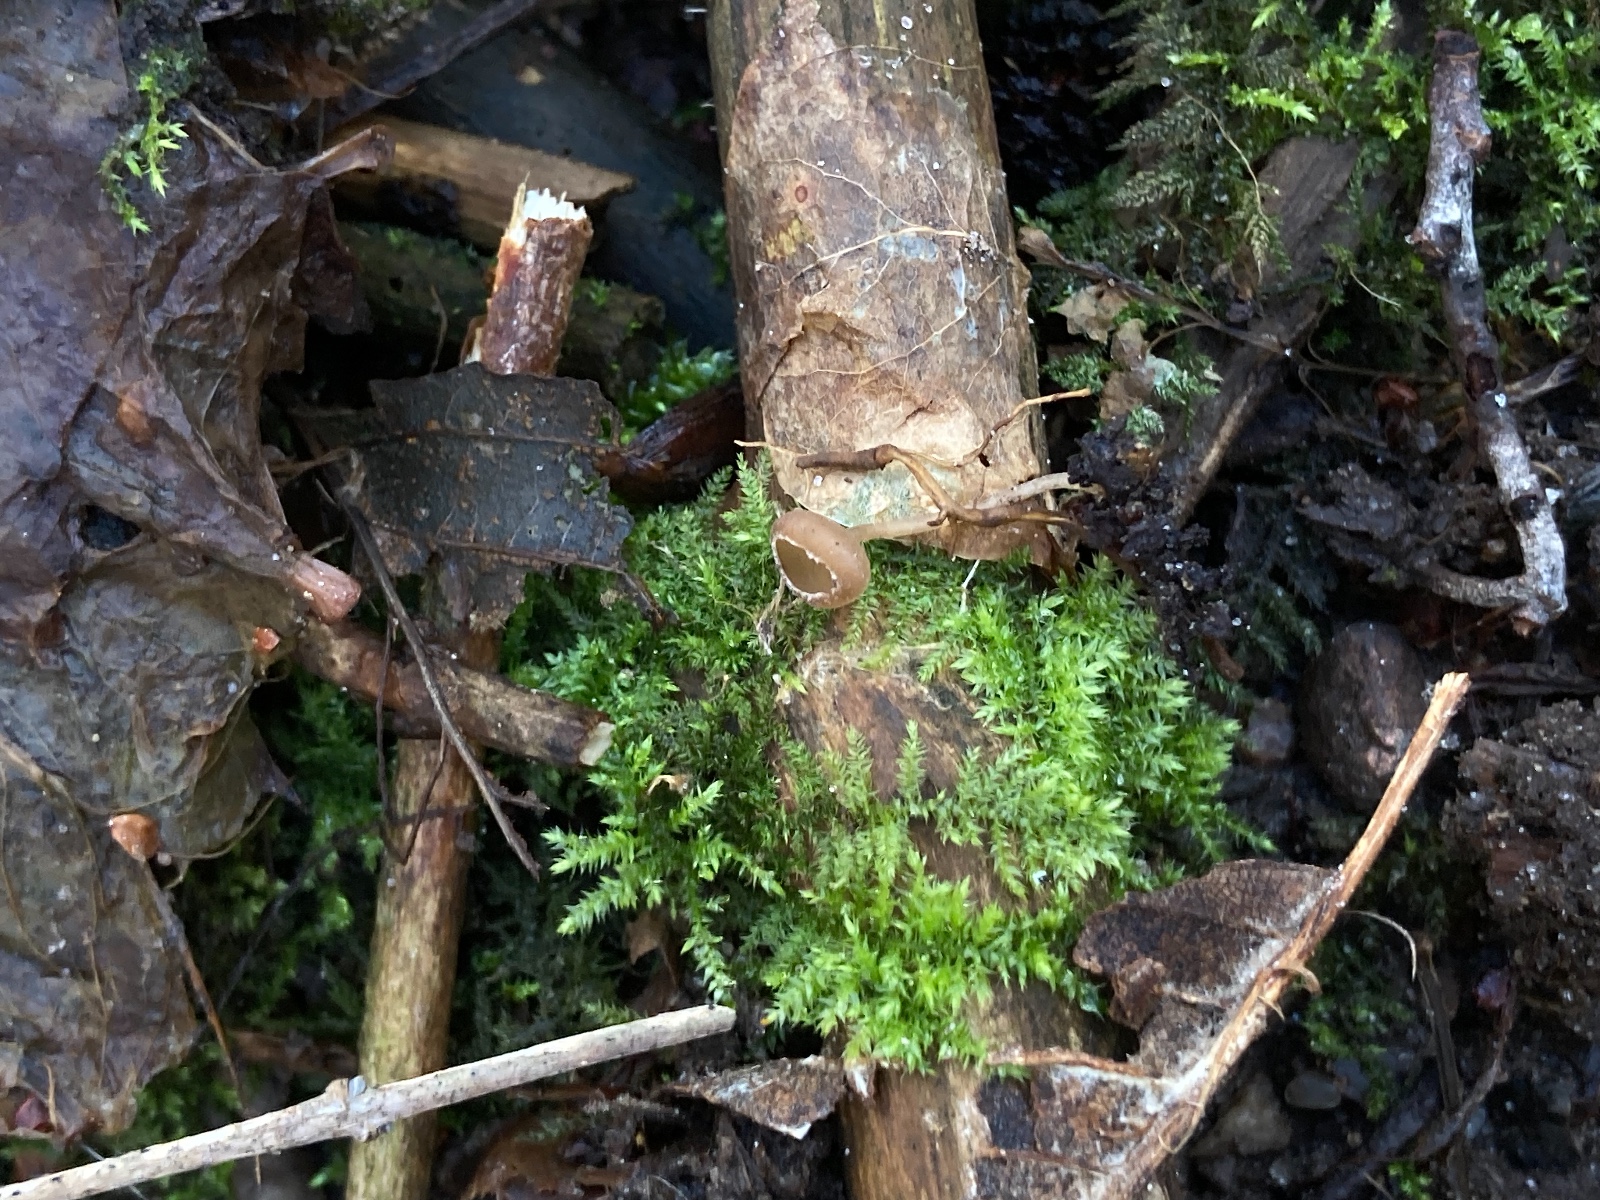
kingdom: Fungi
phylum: Ascomycota
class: Leotiomycetes
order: Helotiales
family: Sclerotiniaceae
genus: Ciboria
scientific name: Ciboria amentacea
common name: ellerakle-knoldskive
